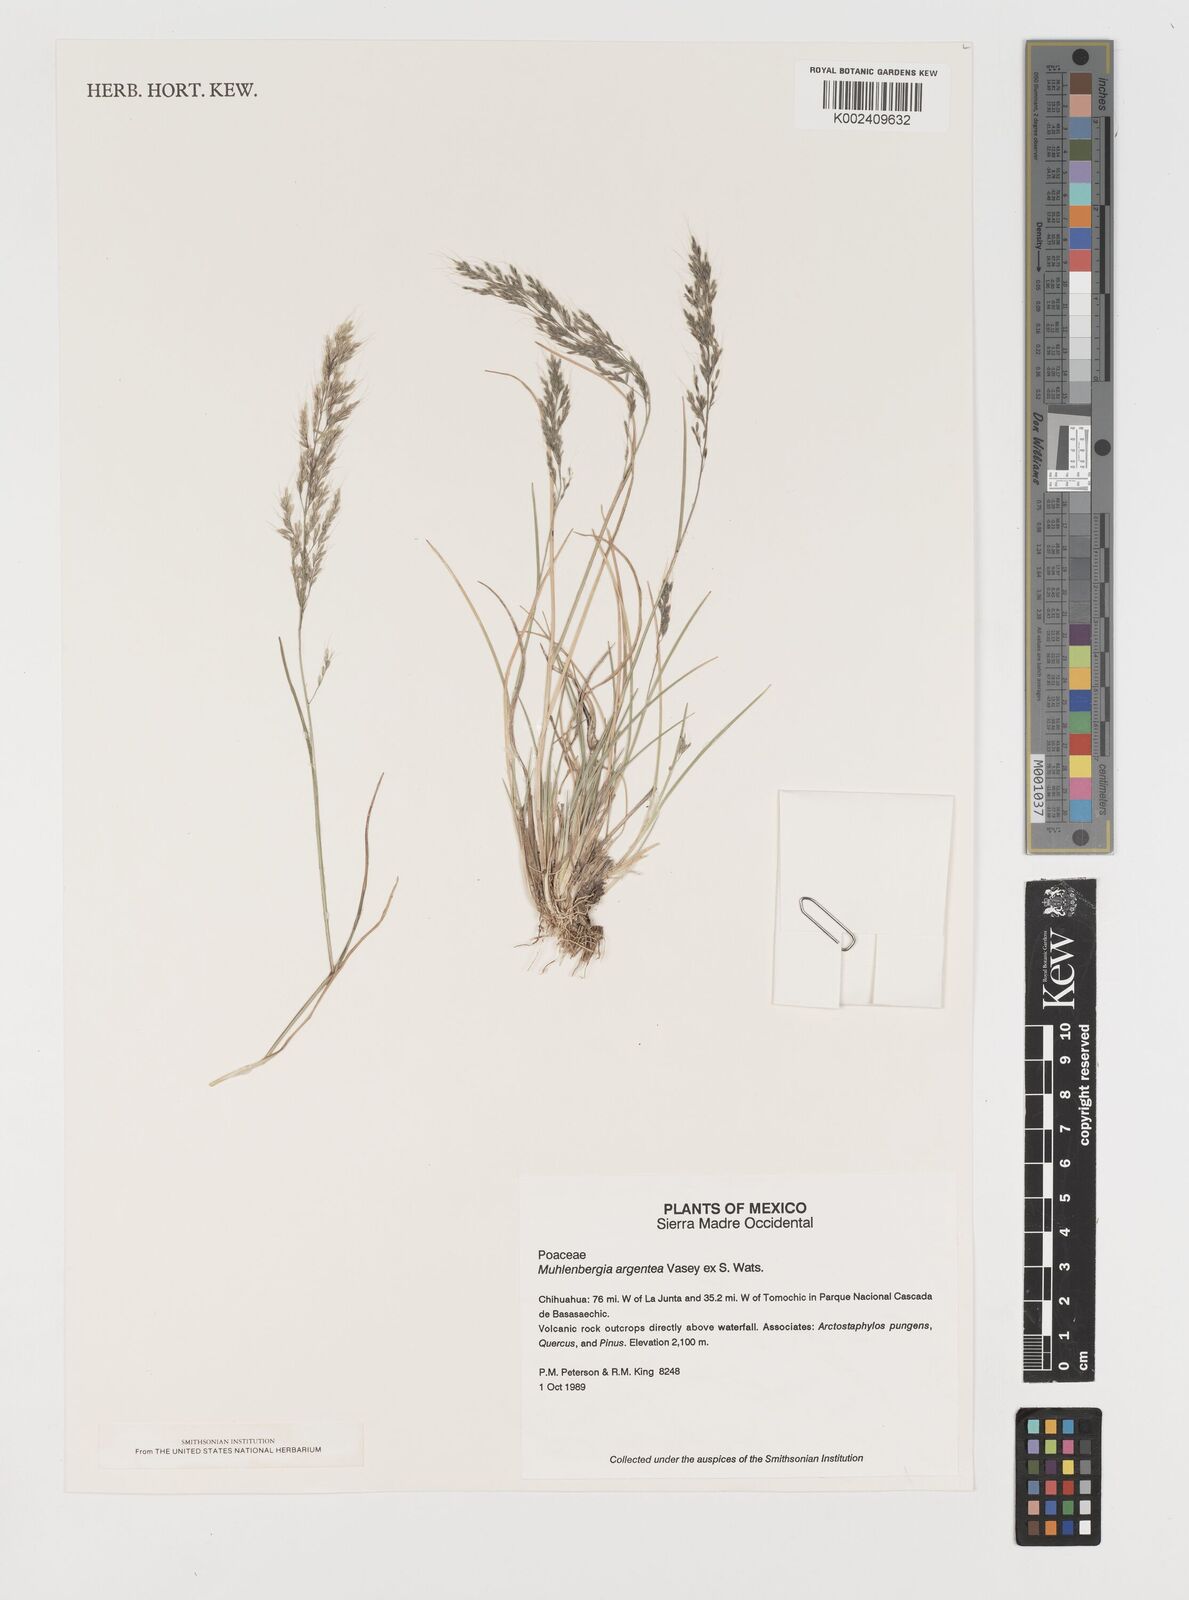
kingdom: Plantae
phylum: Tracheophyta
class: Liliopsida
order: Poales
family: Poaceae
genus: Muhlenbergia
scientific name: Muhlenbergia argentea
